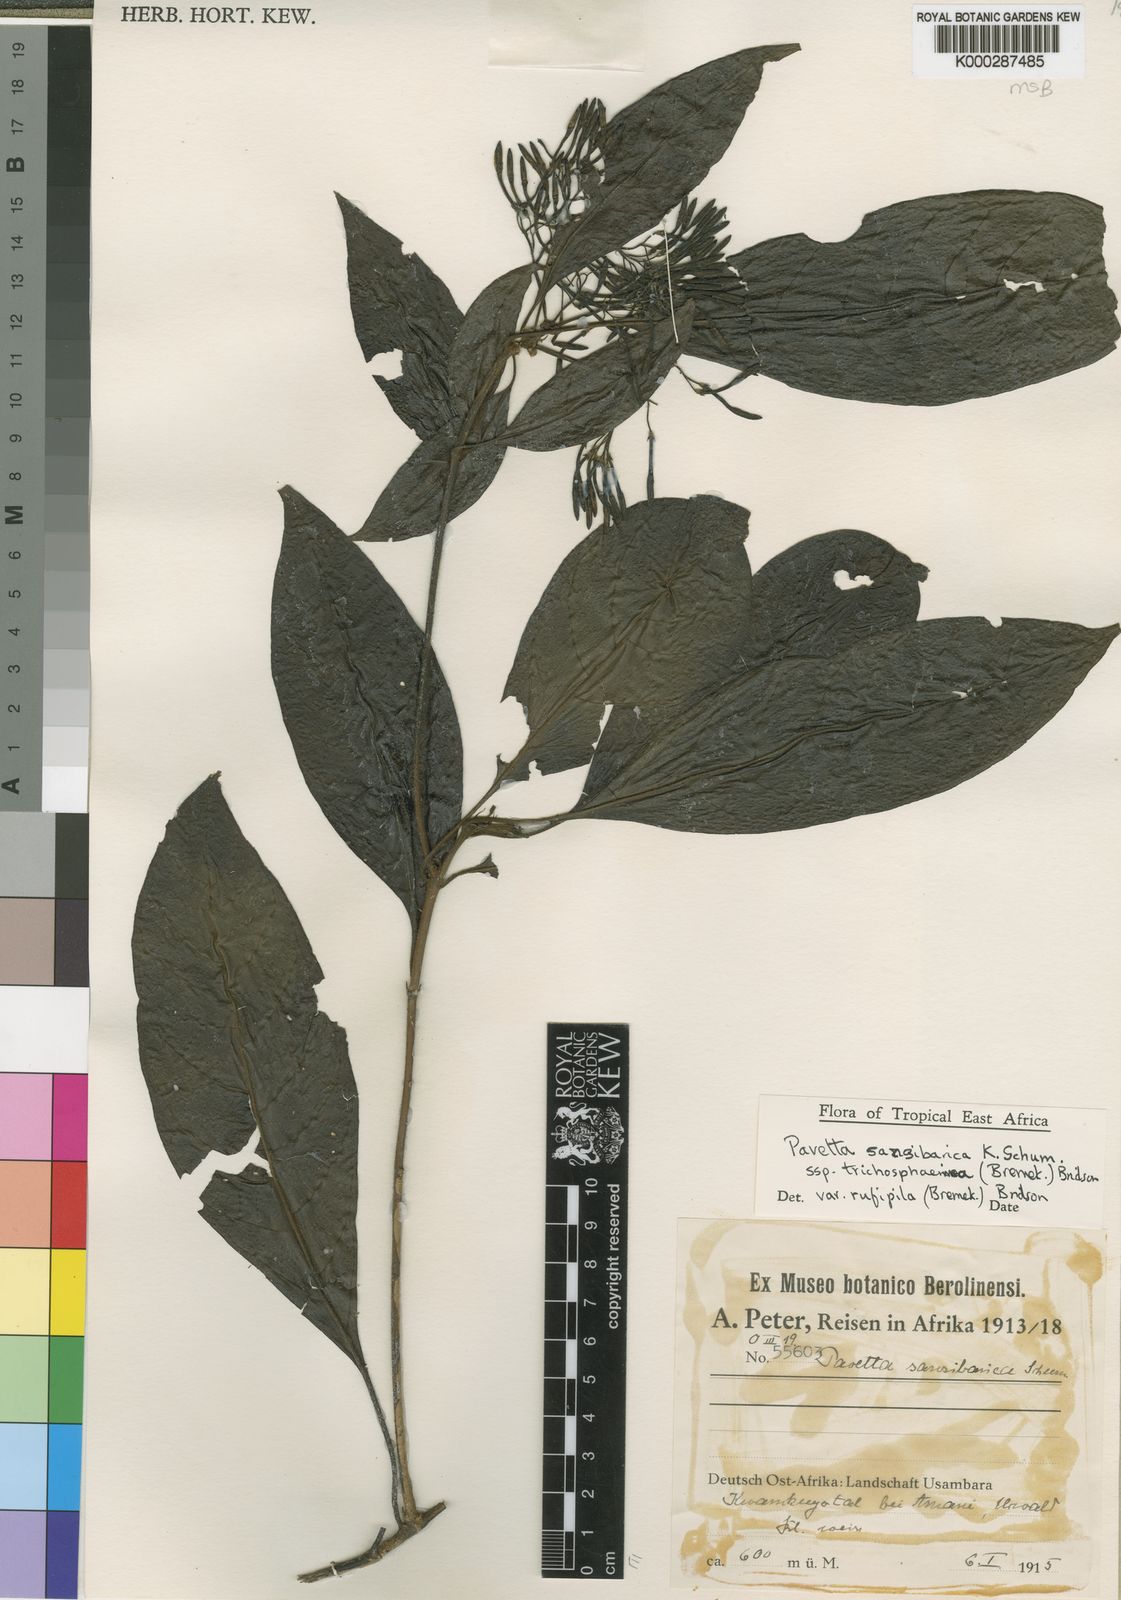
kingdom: Plantae
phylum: Tracheophyta
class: Magnoliopsida
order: Gentianales
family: Rubiaceae
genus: Pavetta
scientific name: Pavetta sansibarica
